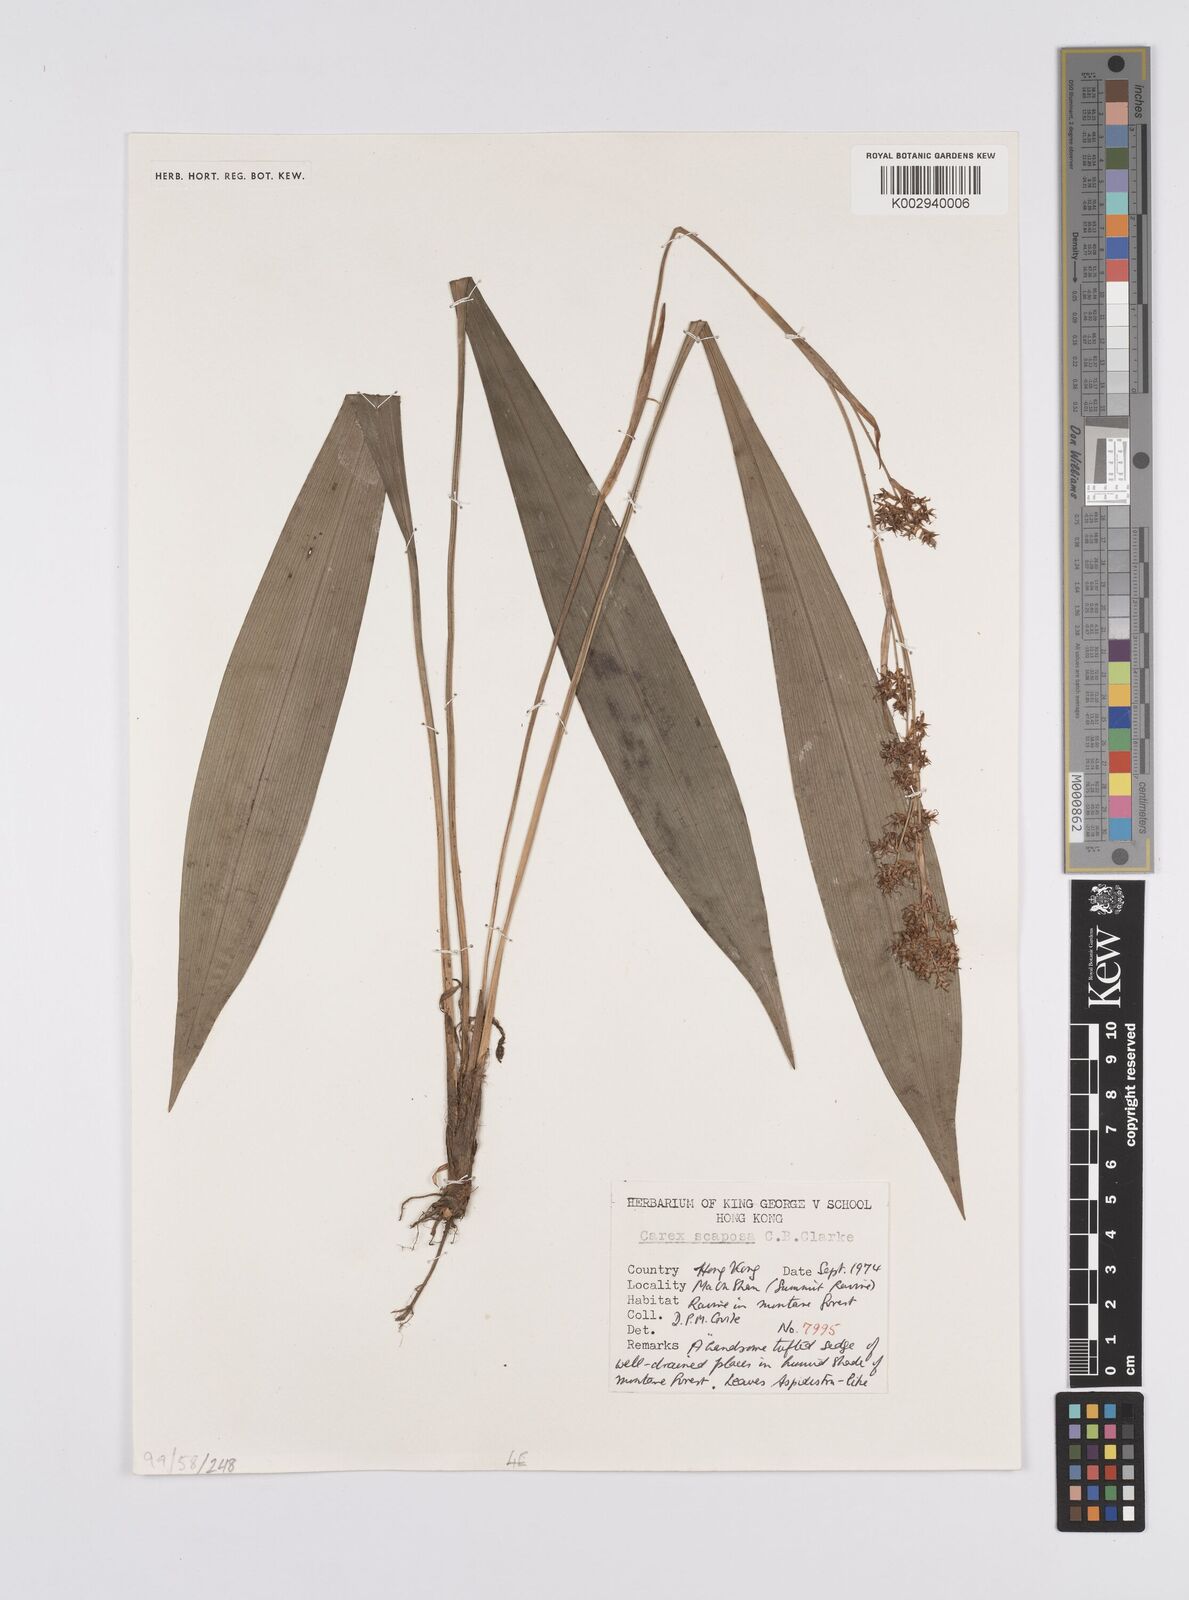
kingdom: Plantae
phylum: Tracheophyta
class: Liliopsida
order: Poales
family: Cyperaceae
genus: Carex
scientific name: Carex scaposa
